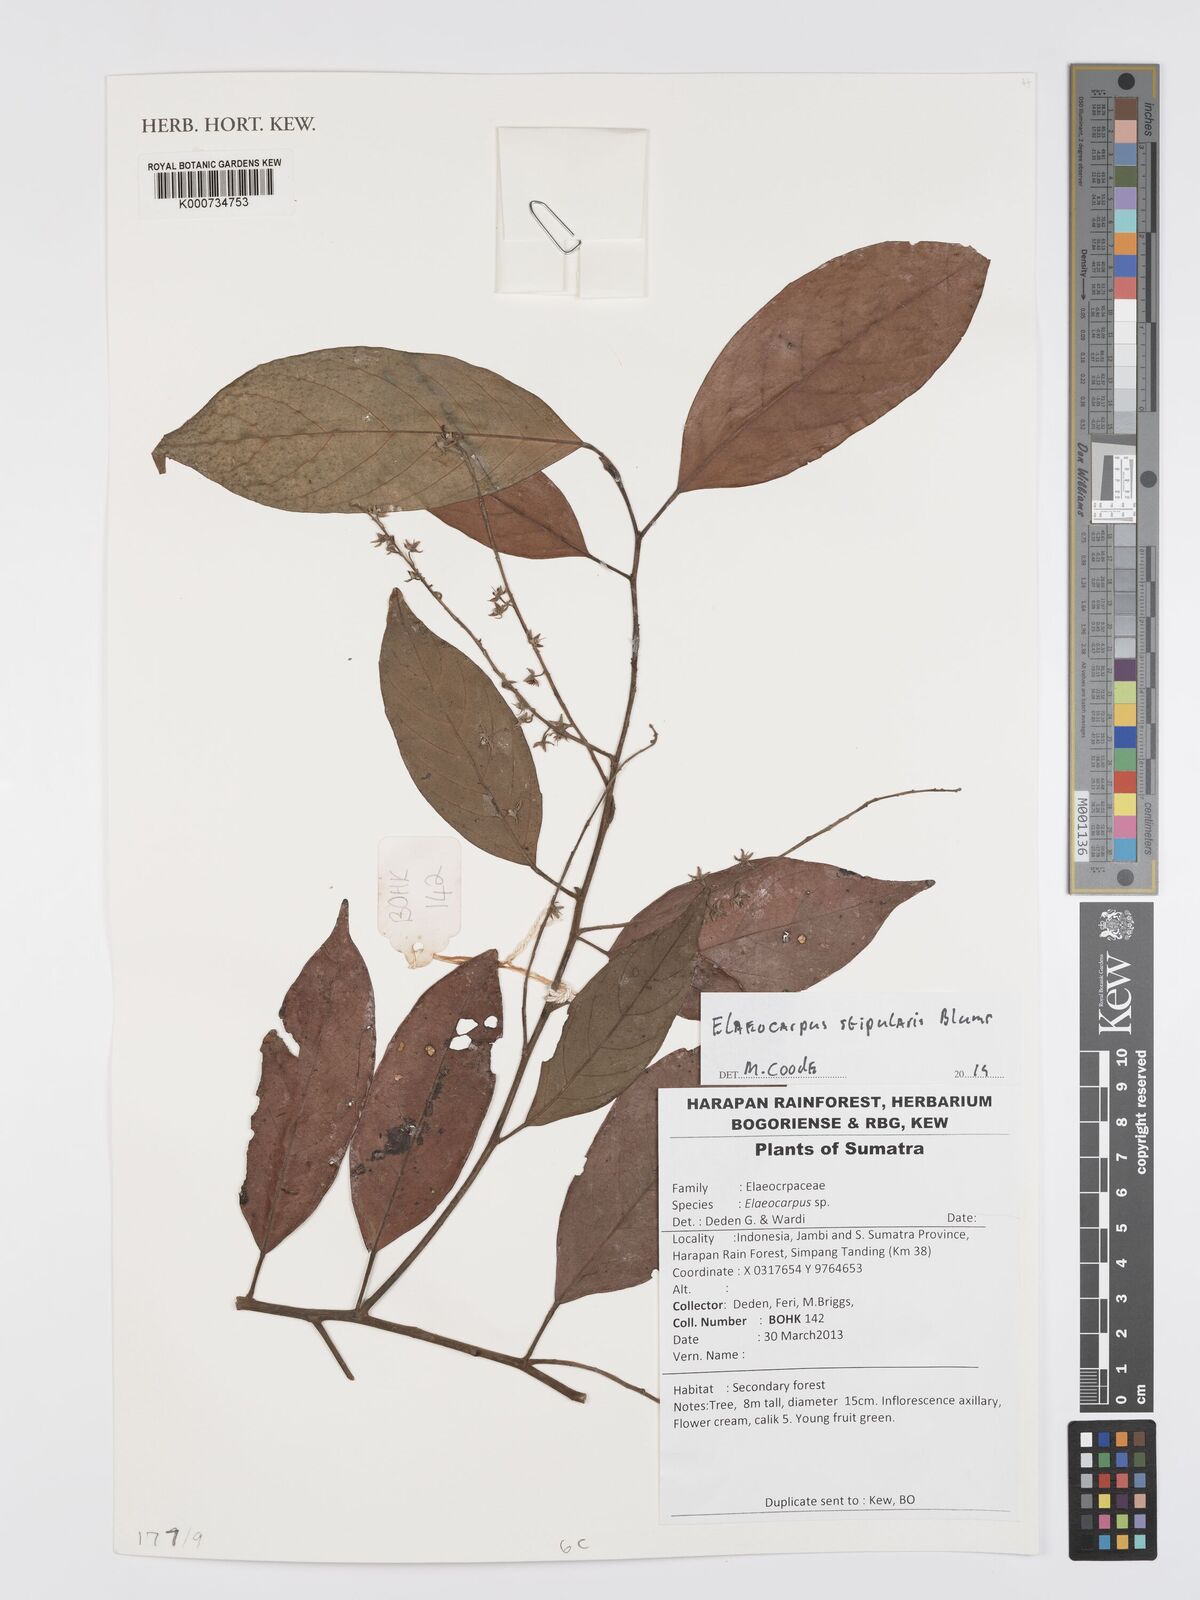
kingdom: Plantae
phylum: Tracheophyta
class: Magnoliopsida
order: Oxalidales
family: Elaeocarpaceae
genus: Elaeocarpus
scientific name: Elaeocarpus stipularis
